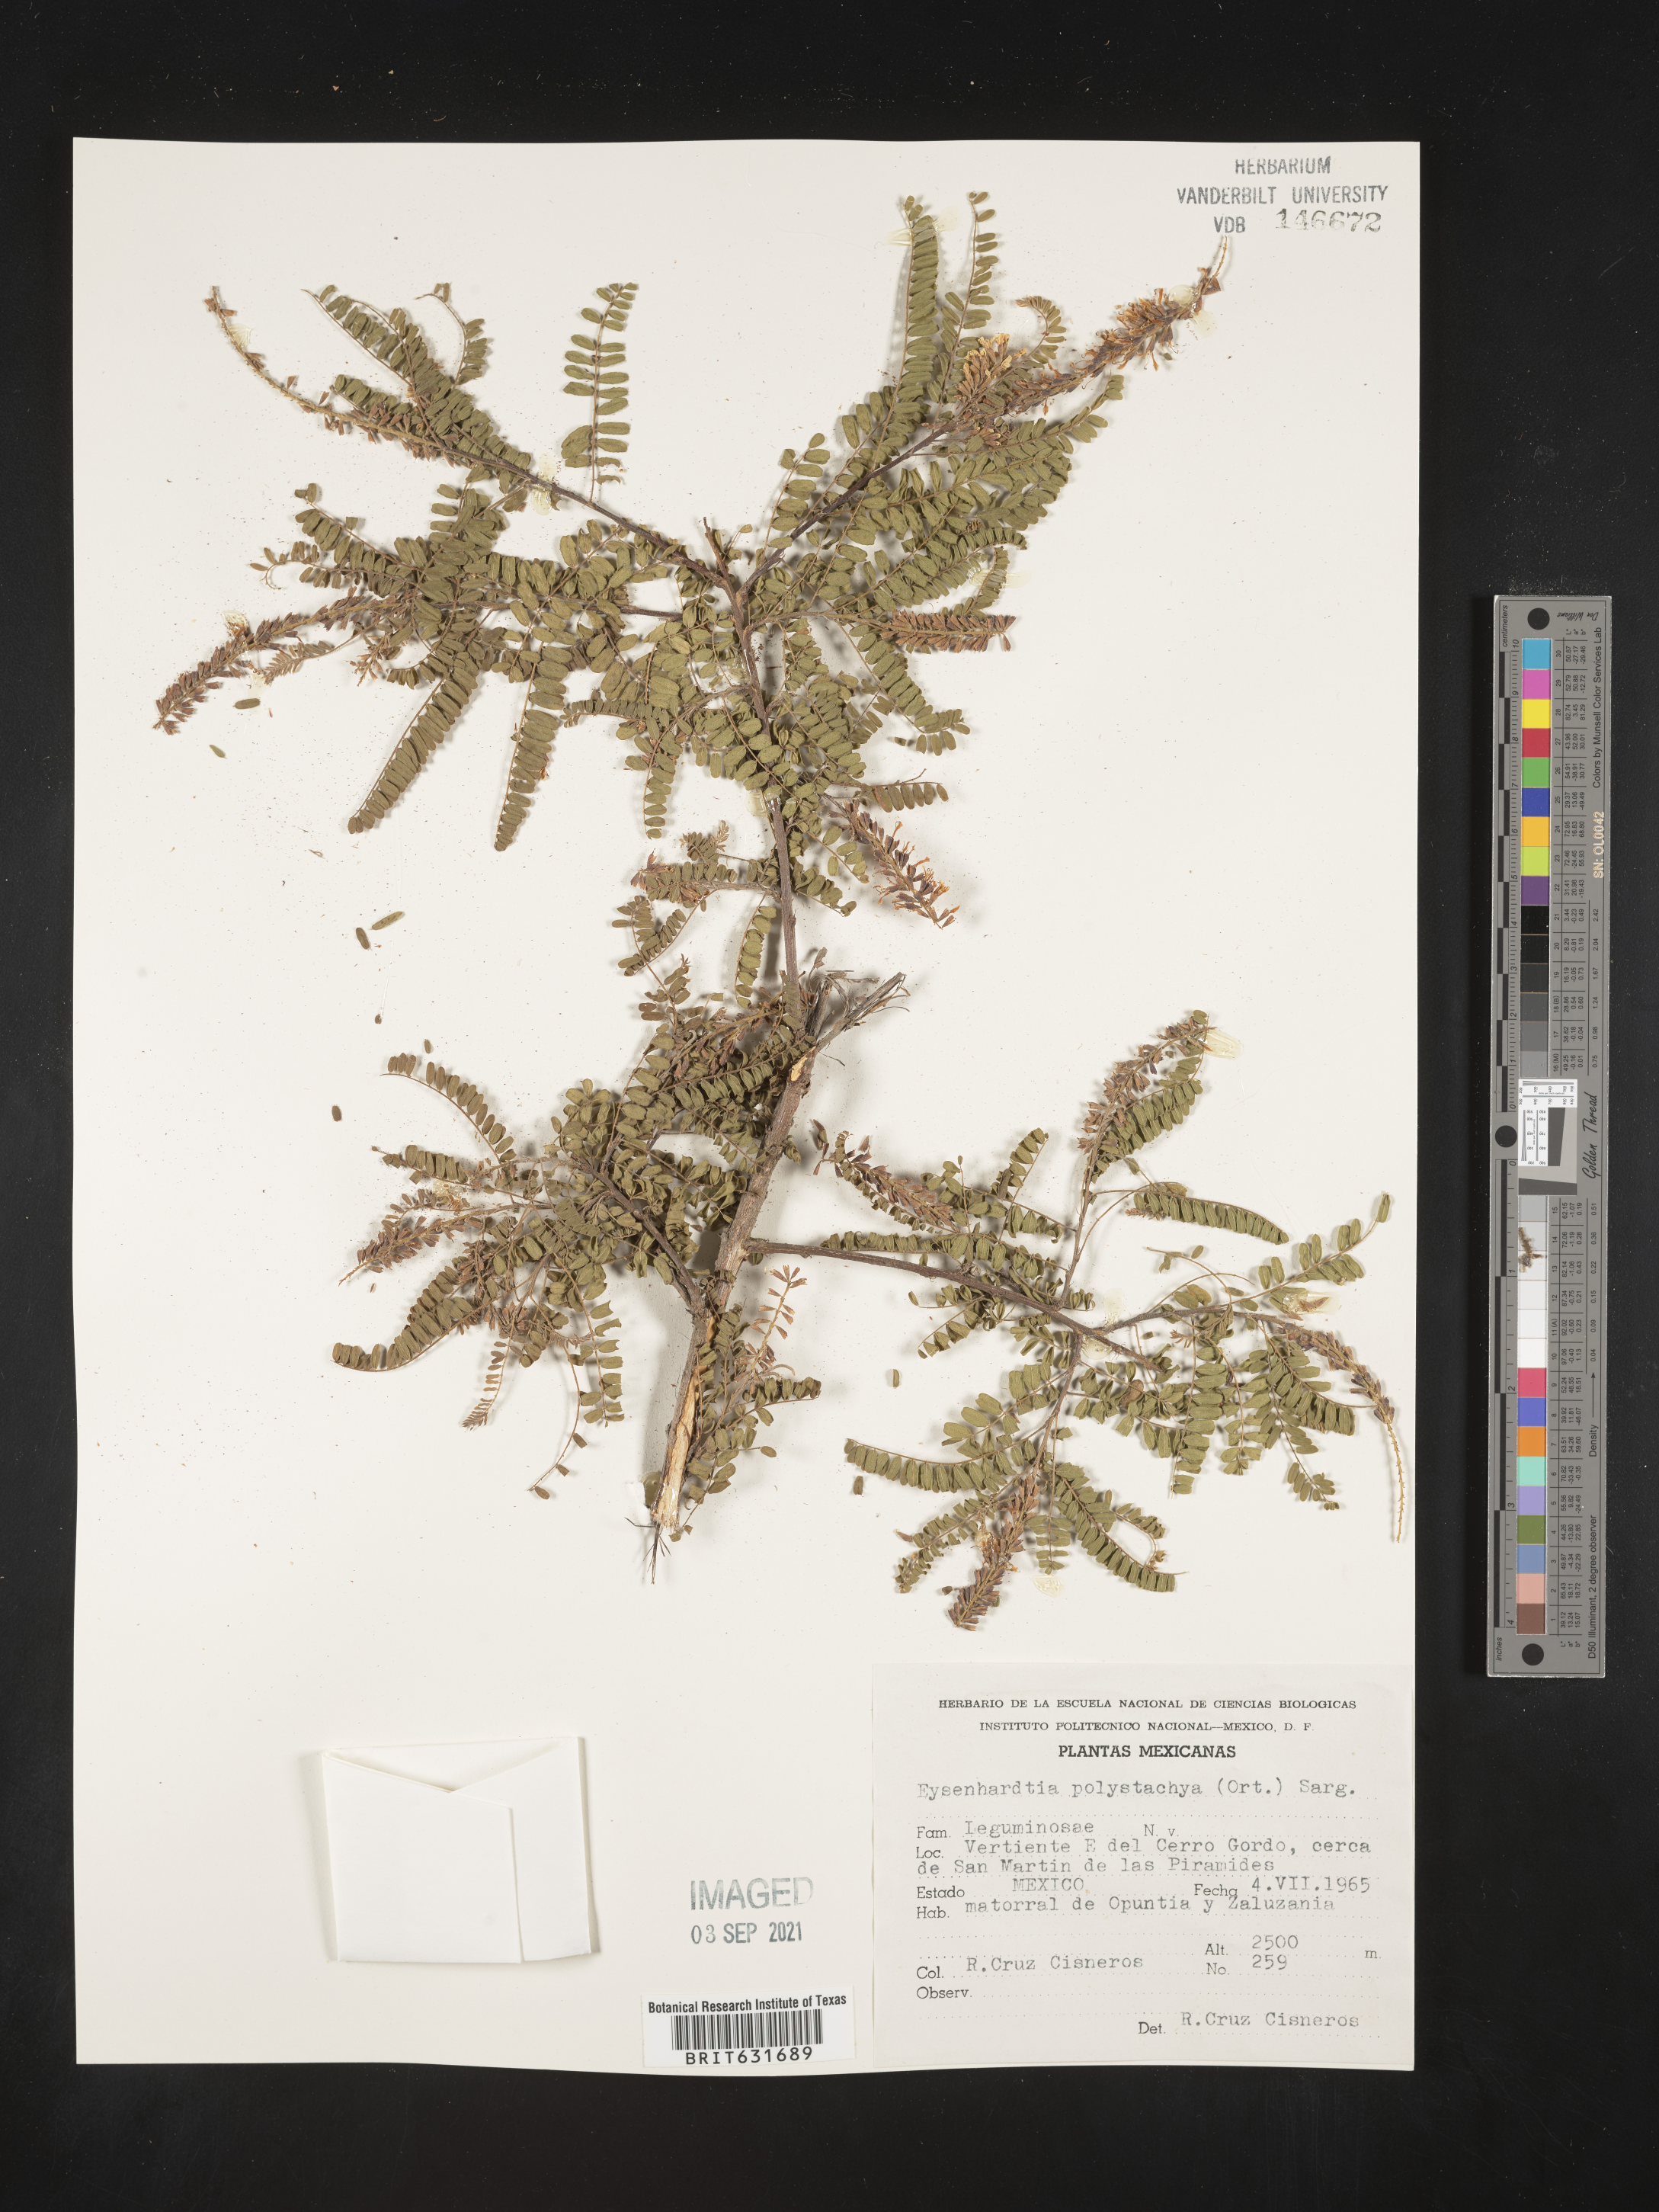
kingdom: Plantae
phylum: Tracheophyta
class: Magnoliopsida
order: Fabales
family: Fabaceae
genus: Eysenhardtia
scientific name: Eysenhardtia
